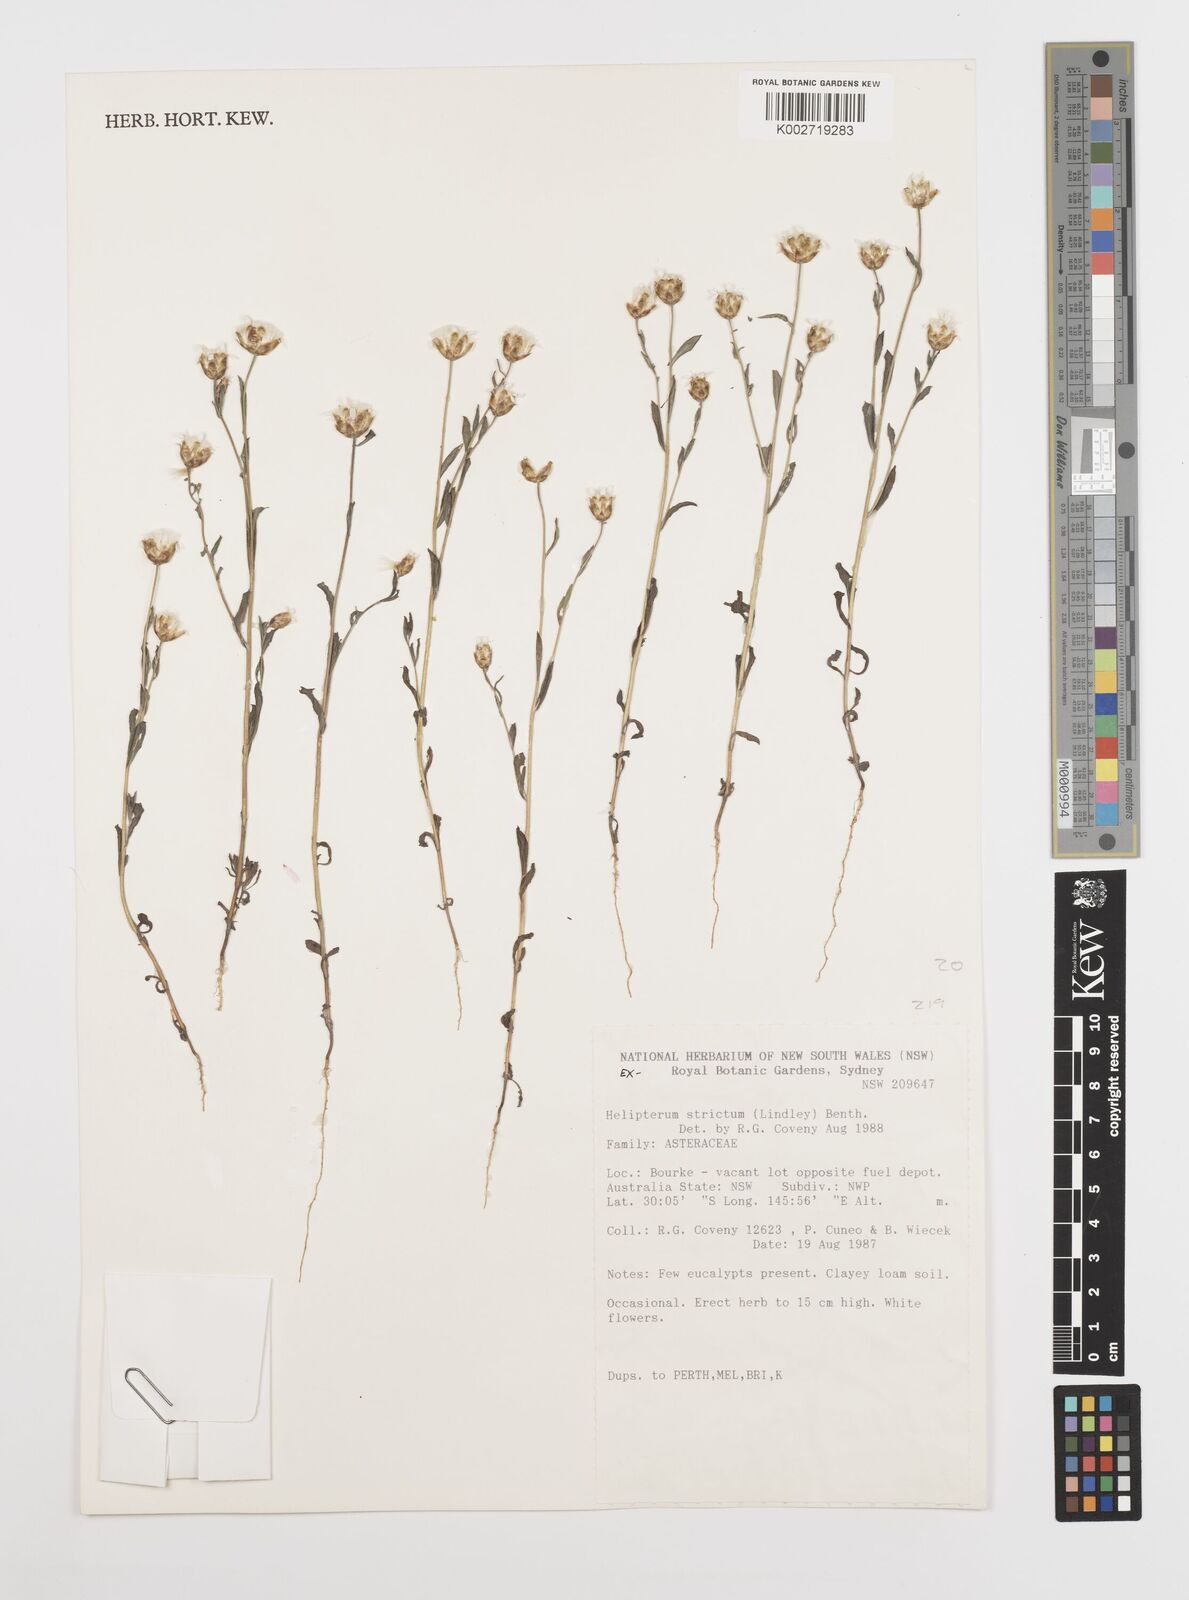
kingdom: Plantae
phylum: Tracheophyta
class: Magnoliopsida
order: Asterales
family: Asteraceae
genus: Rhodanthe
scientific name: Rhodanthe stricta
